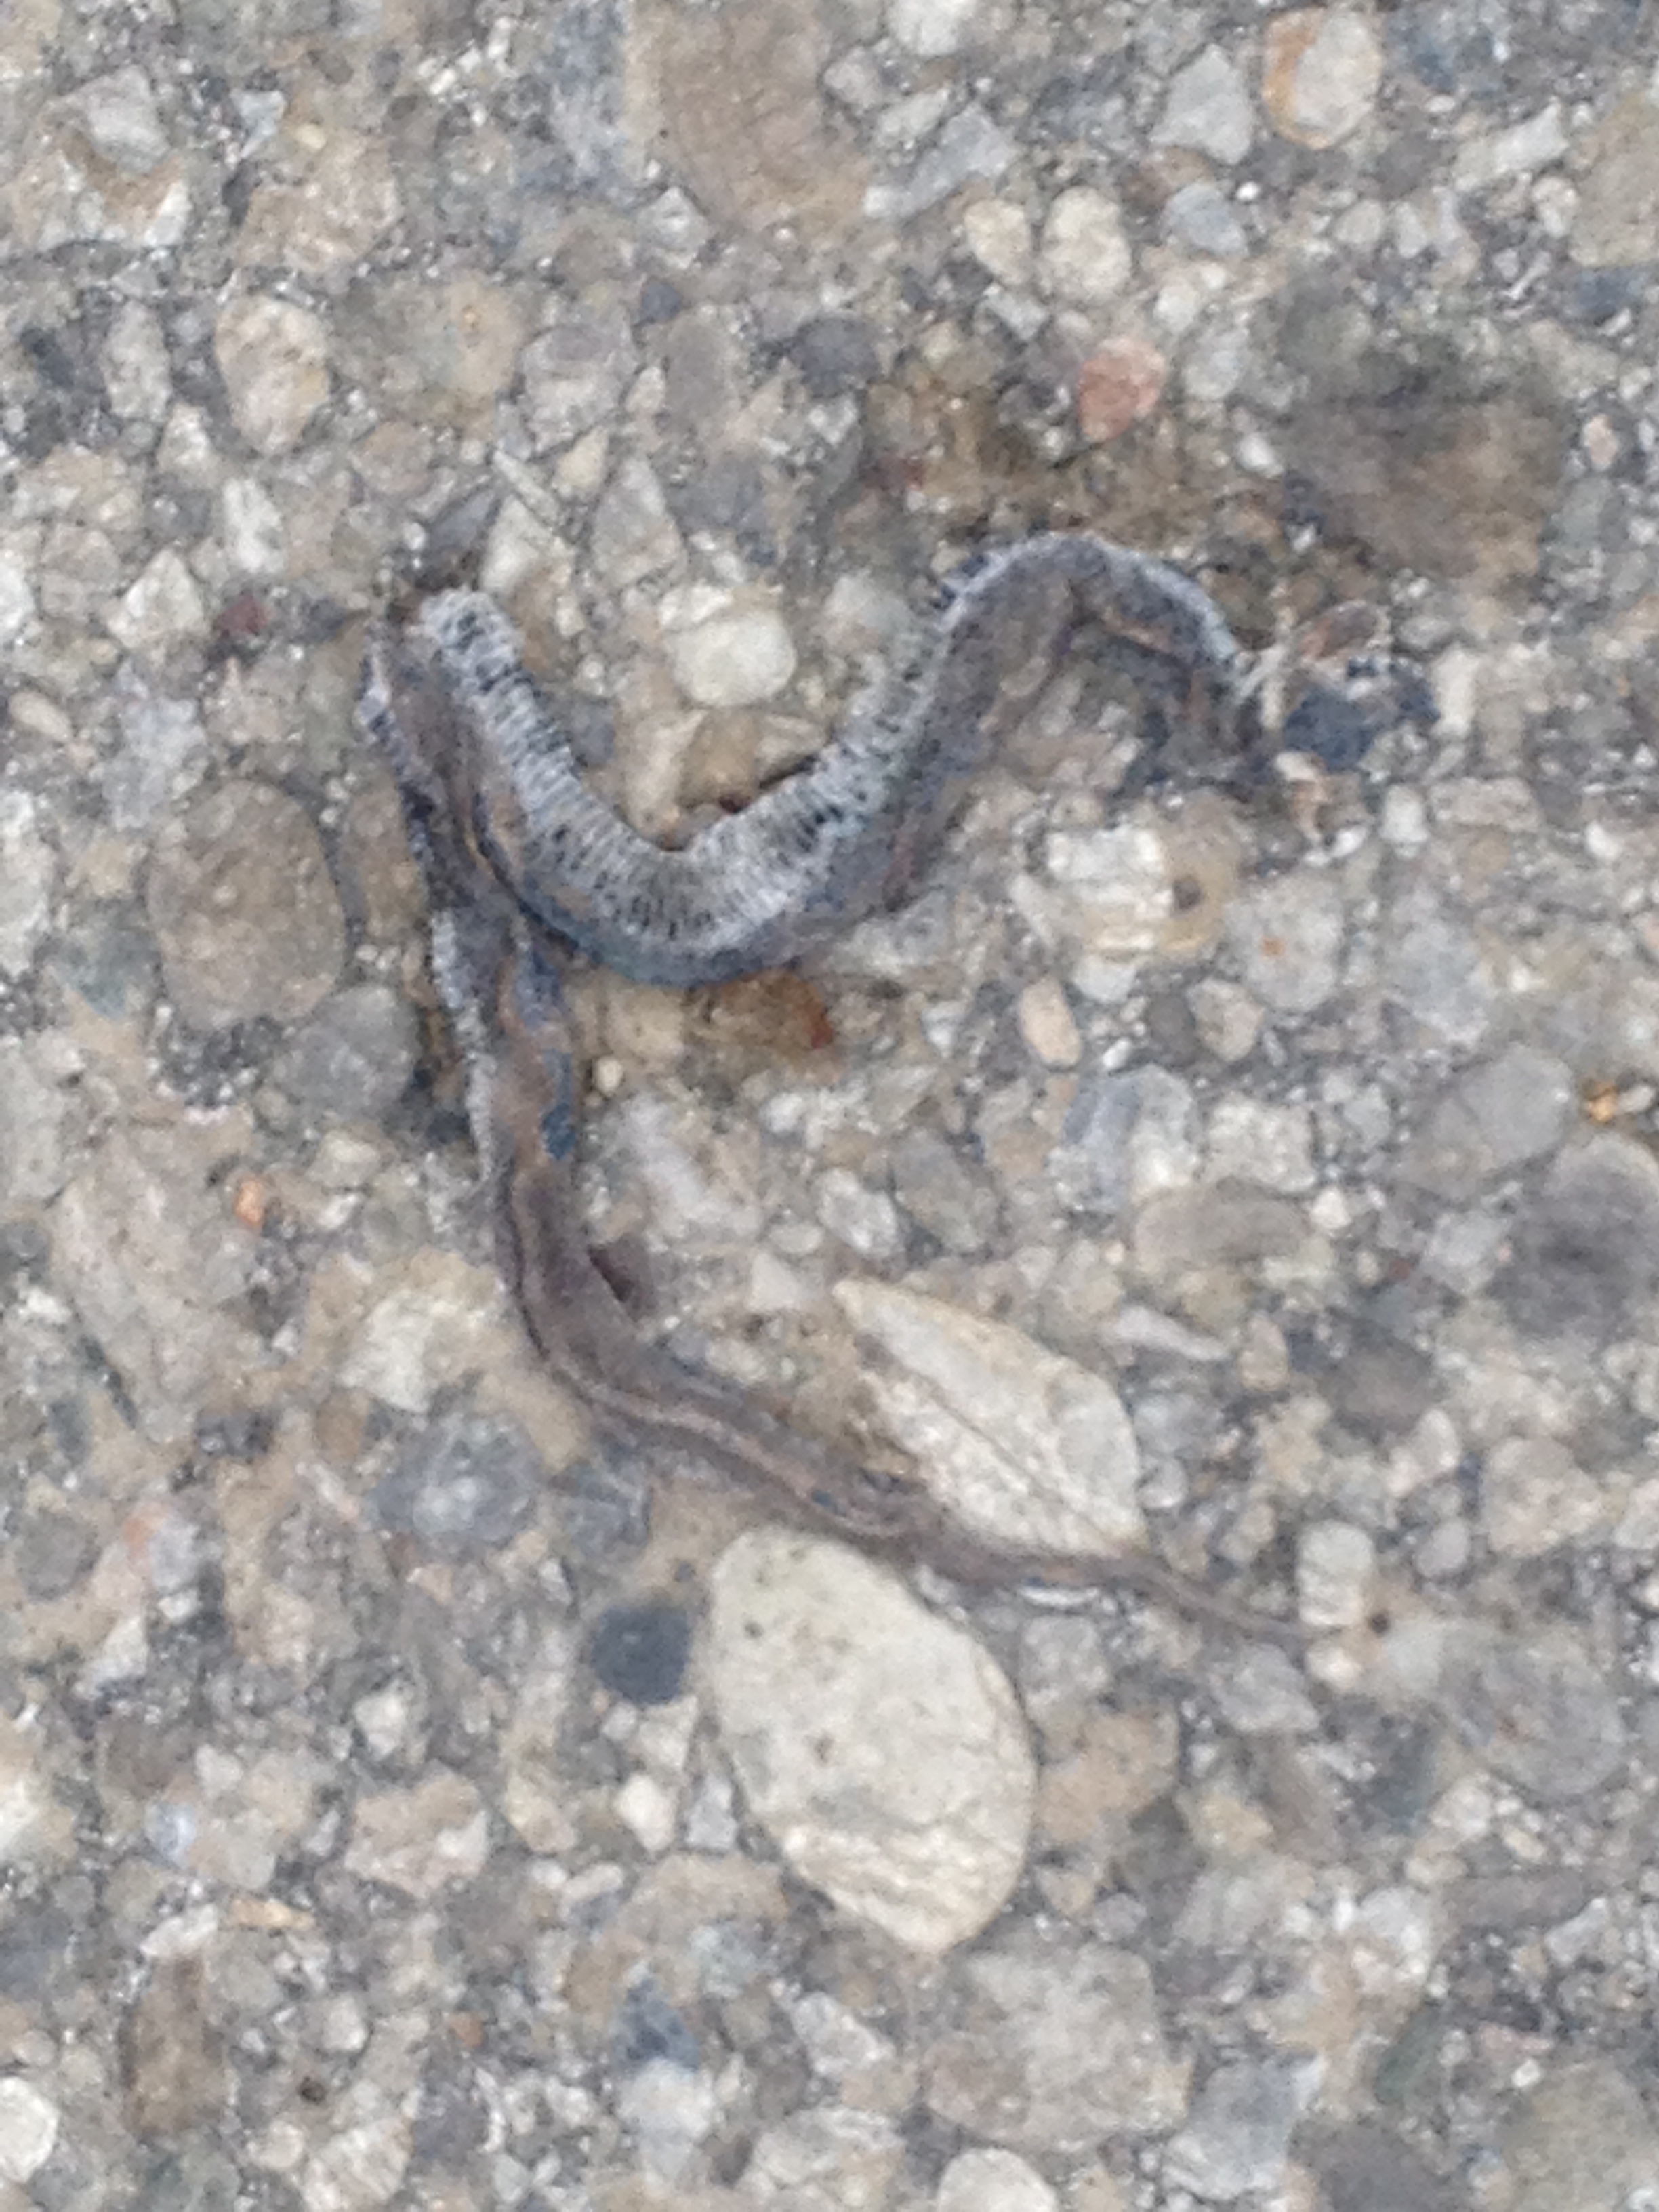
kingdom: Animalia
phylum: Chordata
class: Squamata
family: Colubridae
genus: Natrix
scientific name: Natrix natrix
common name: Grass snake
